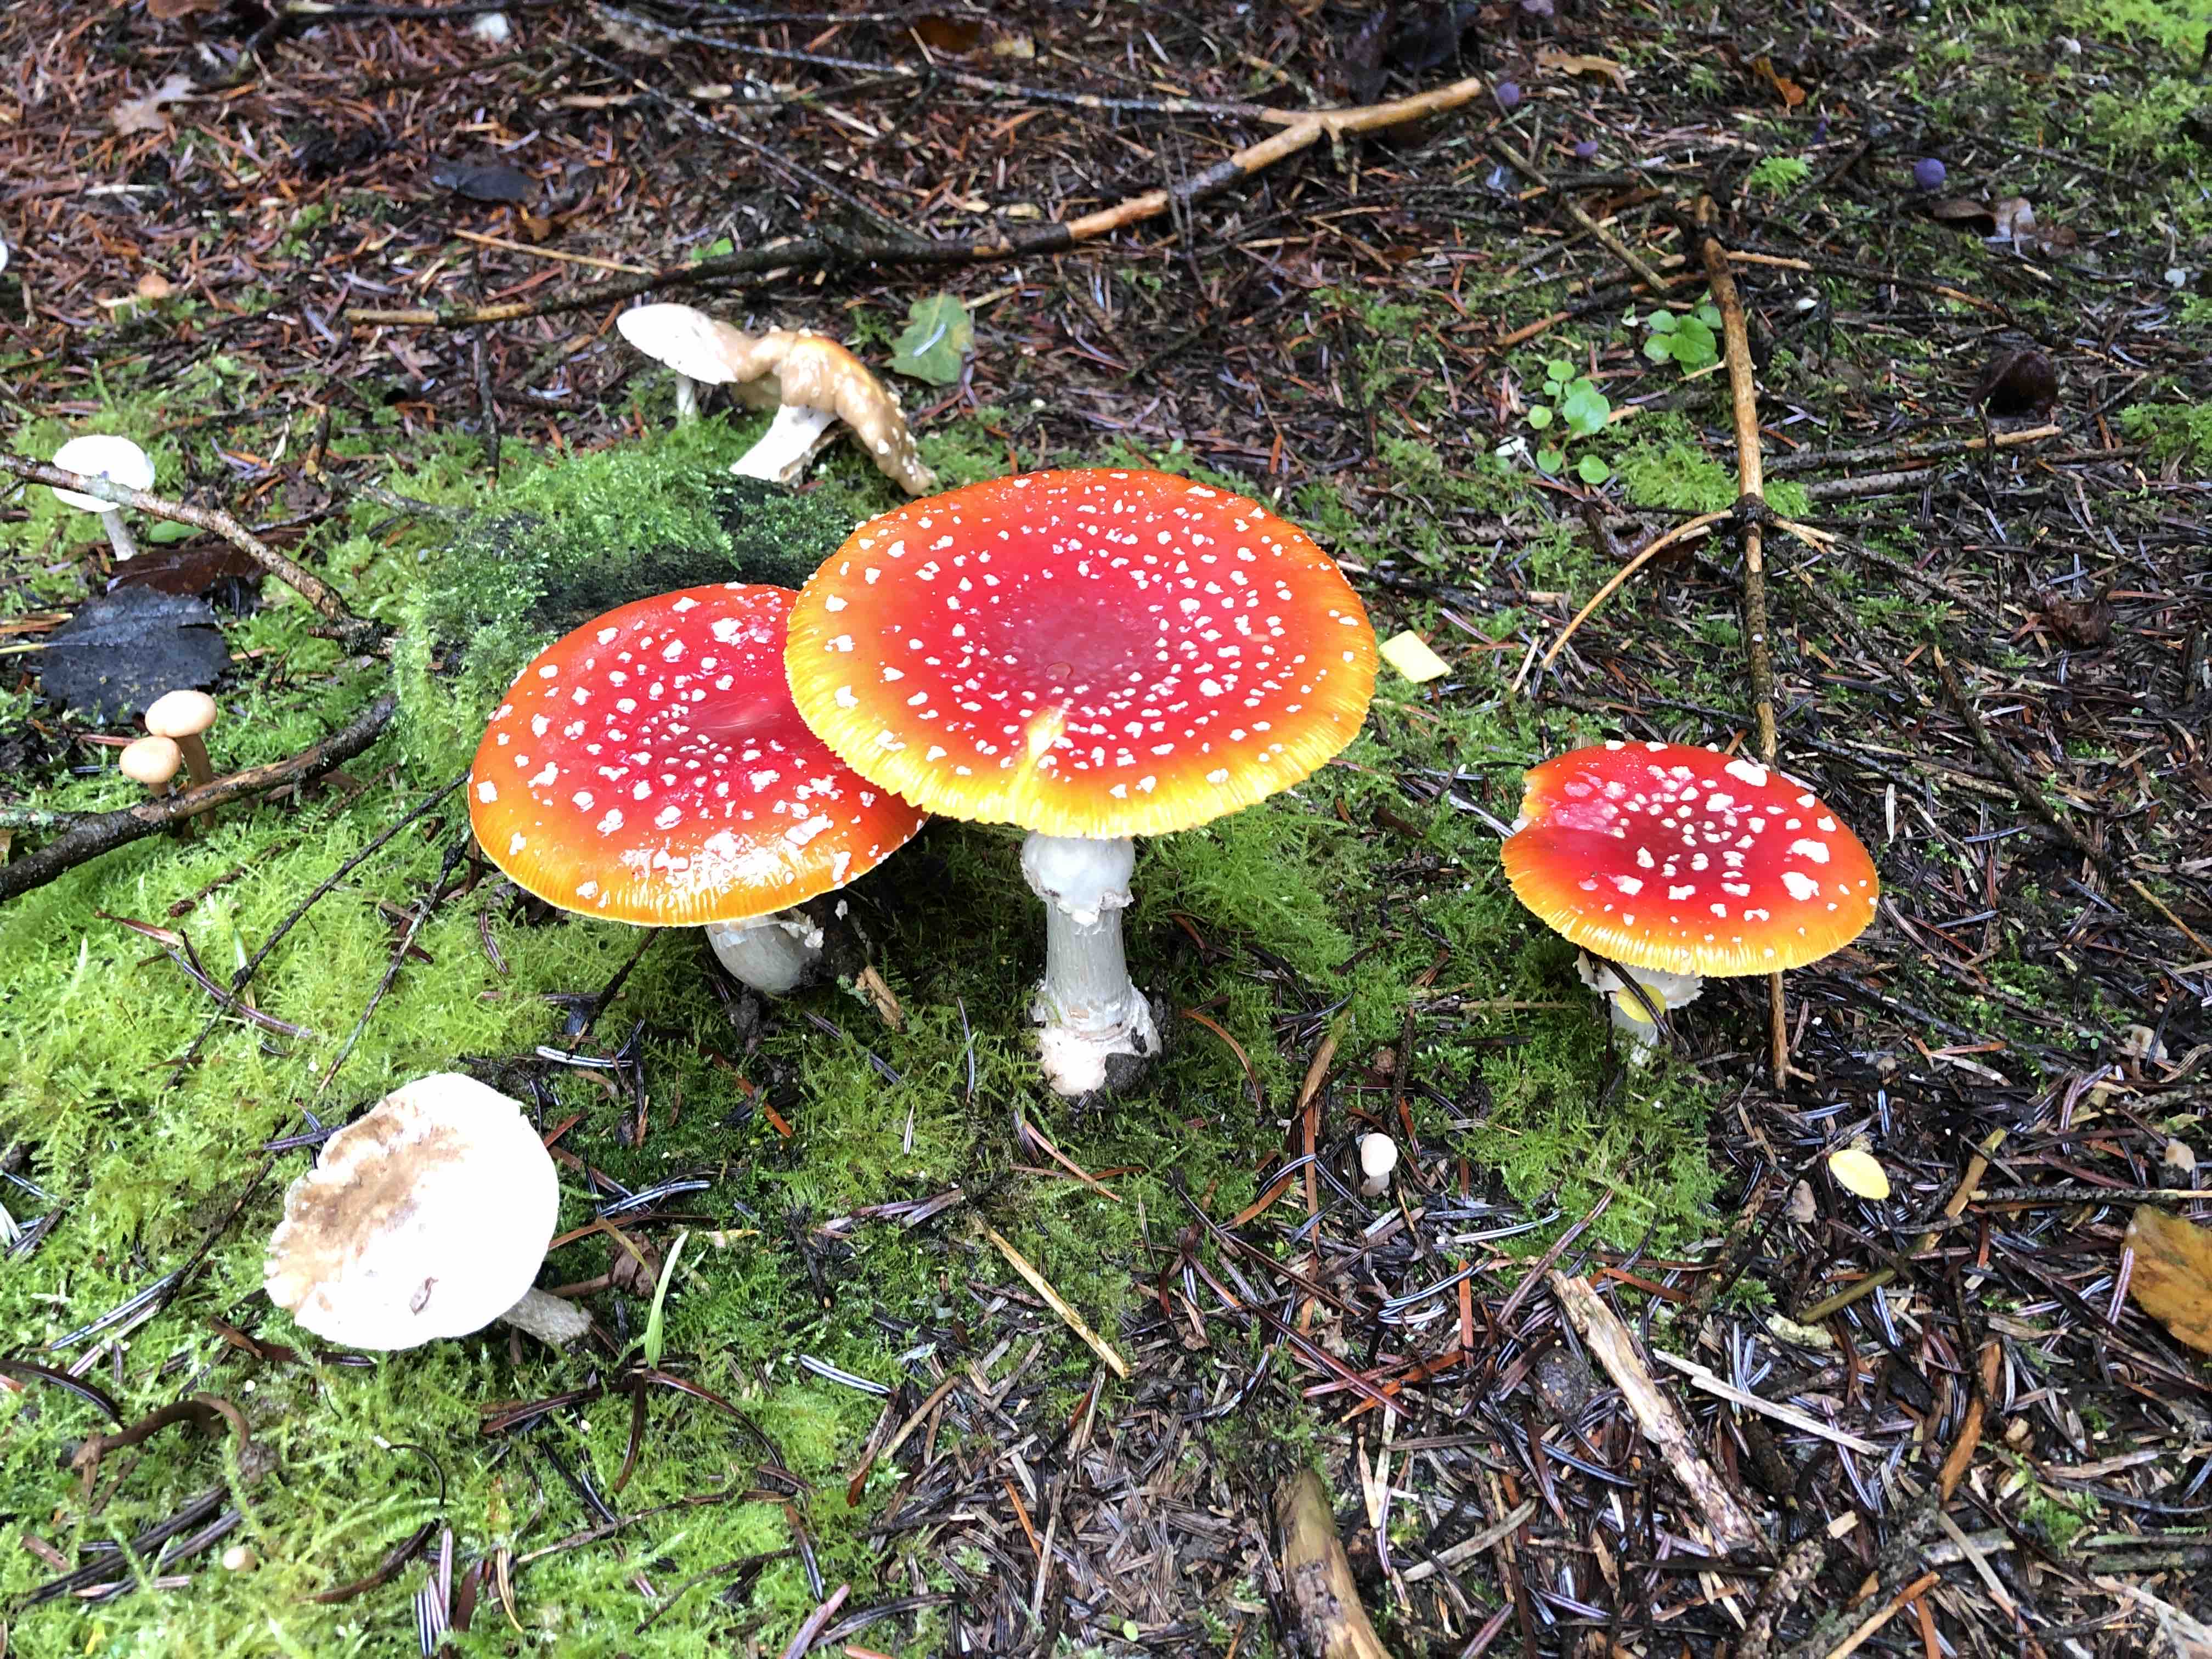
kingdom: Fungi
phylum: Basidiomycota
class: Agaricomycetes
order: Agaricales
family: Amanitaceae
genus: Amanita
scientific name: Amanita muscaria
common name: rød fluesvamp
